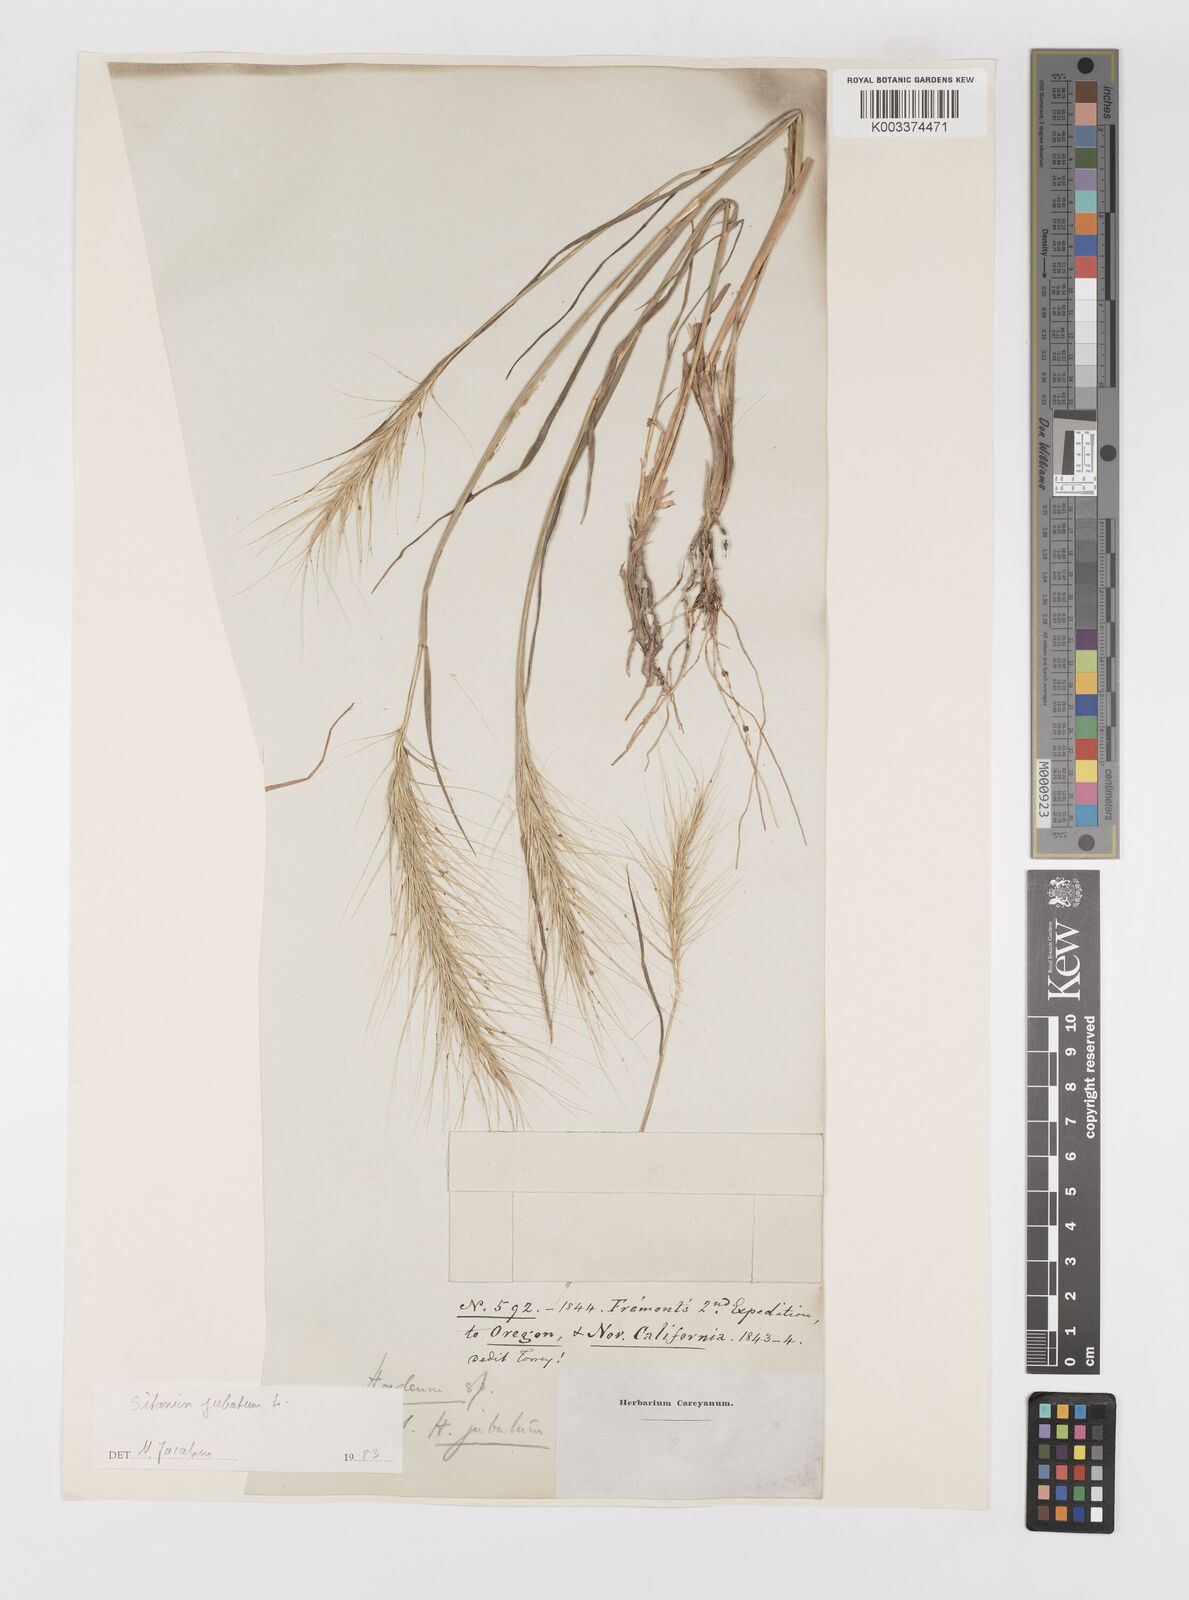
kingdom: Plantae
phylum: Tracheophyta
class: Liliopsida
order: Poales
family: Poaceae
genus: Elymus
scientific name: Elymus multisetus
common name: Big squirreltail
